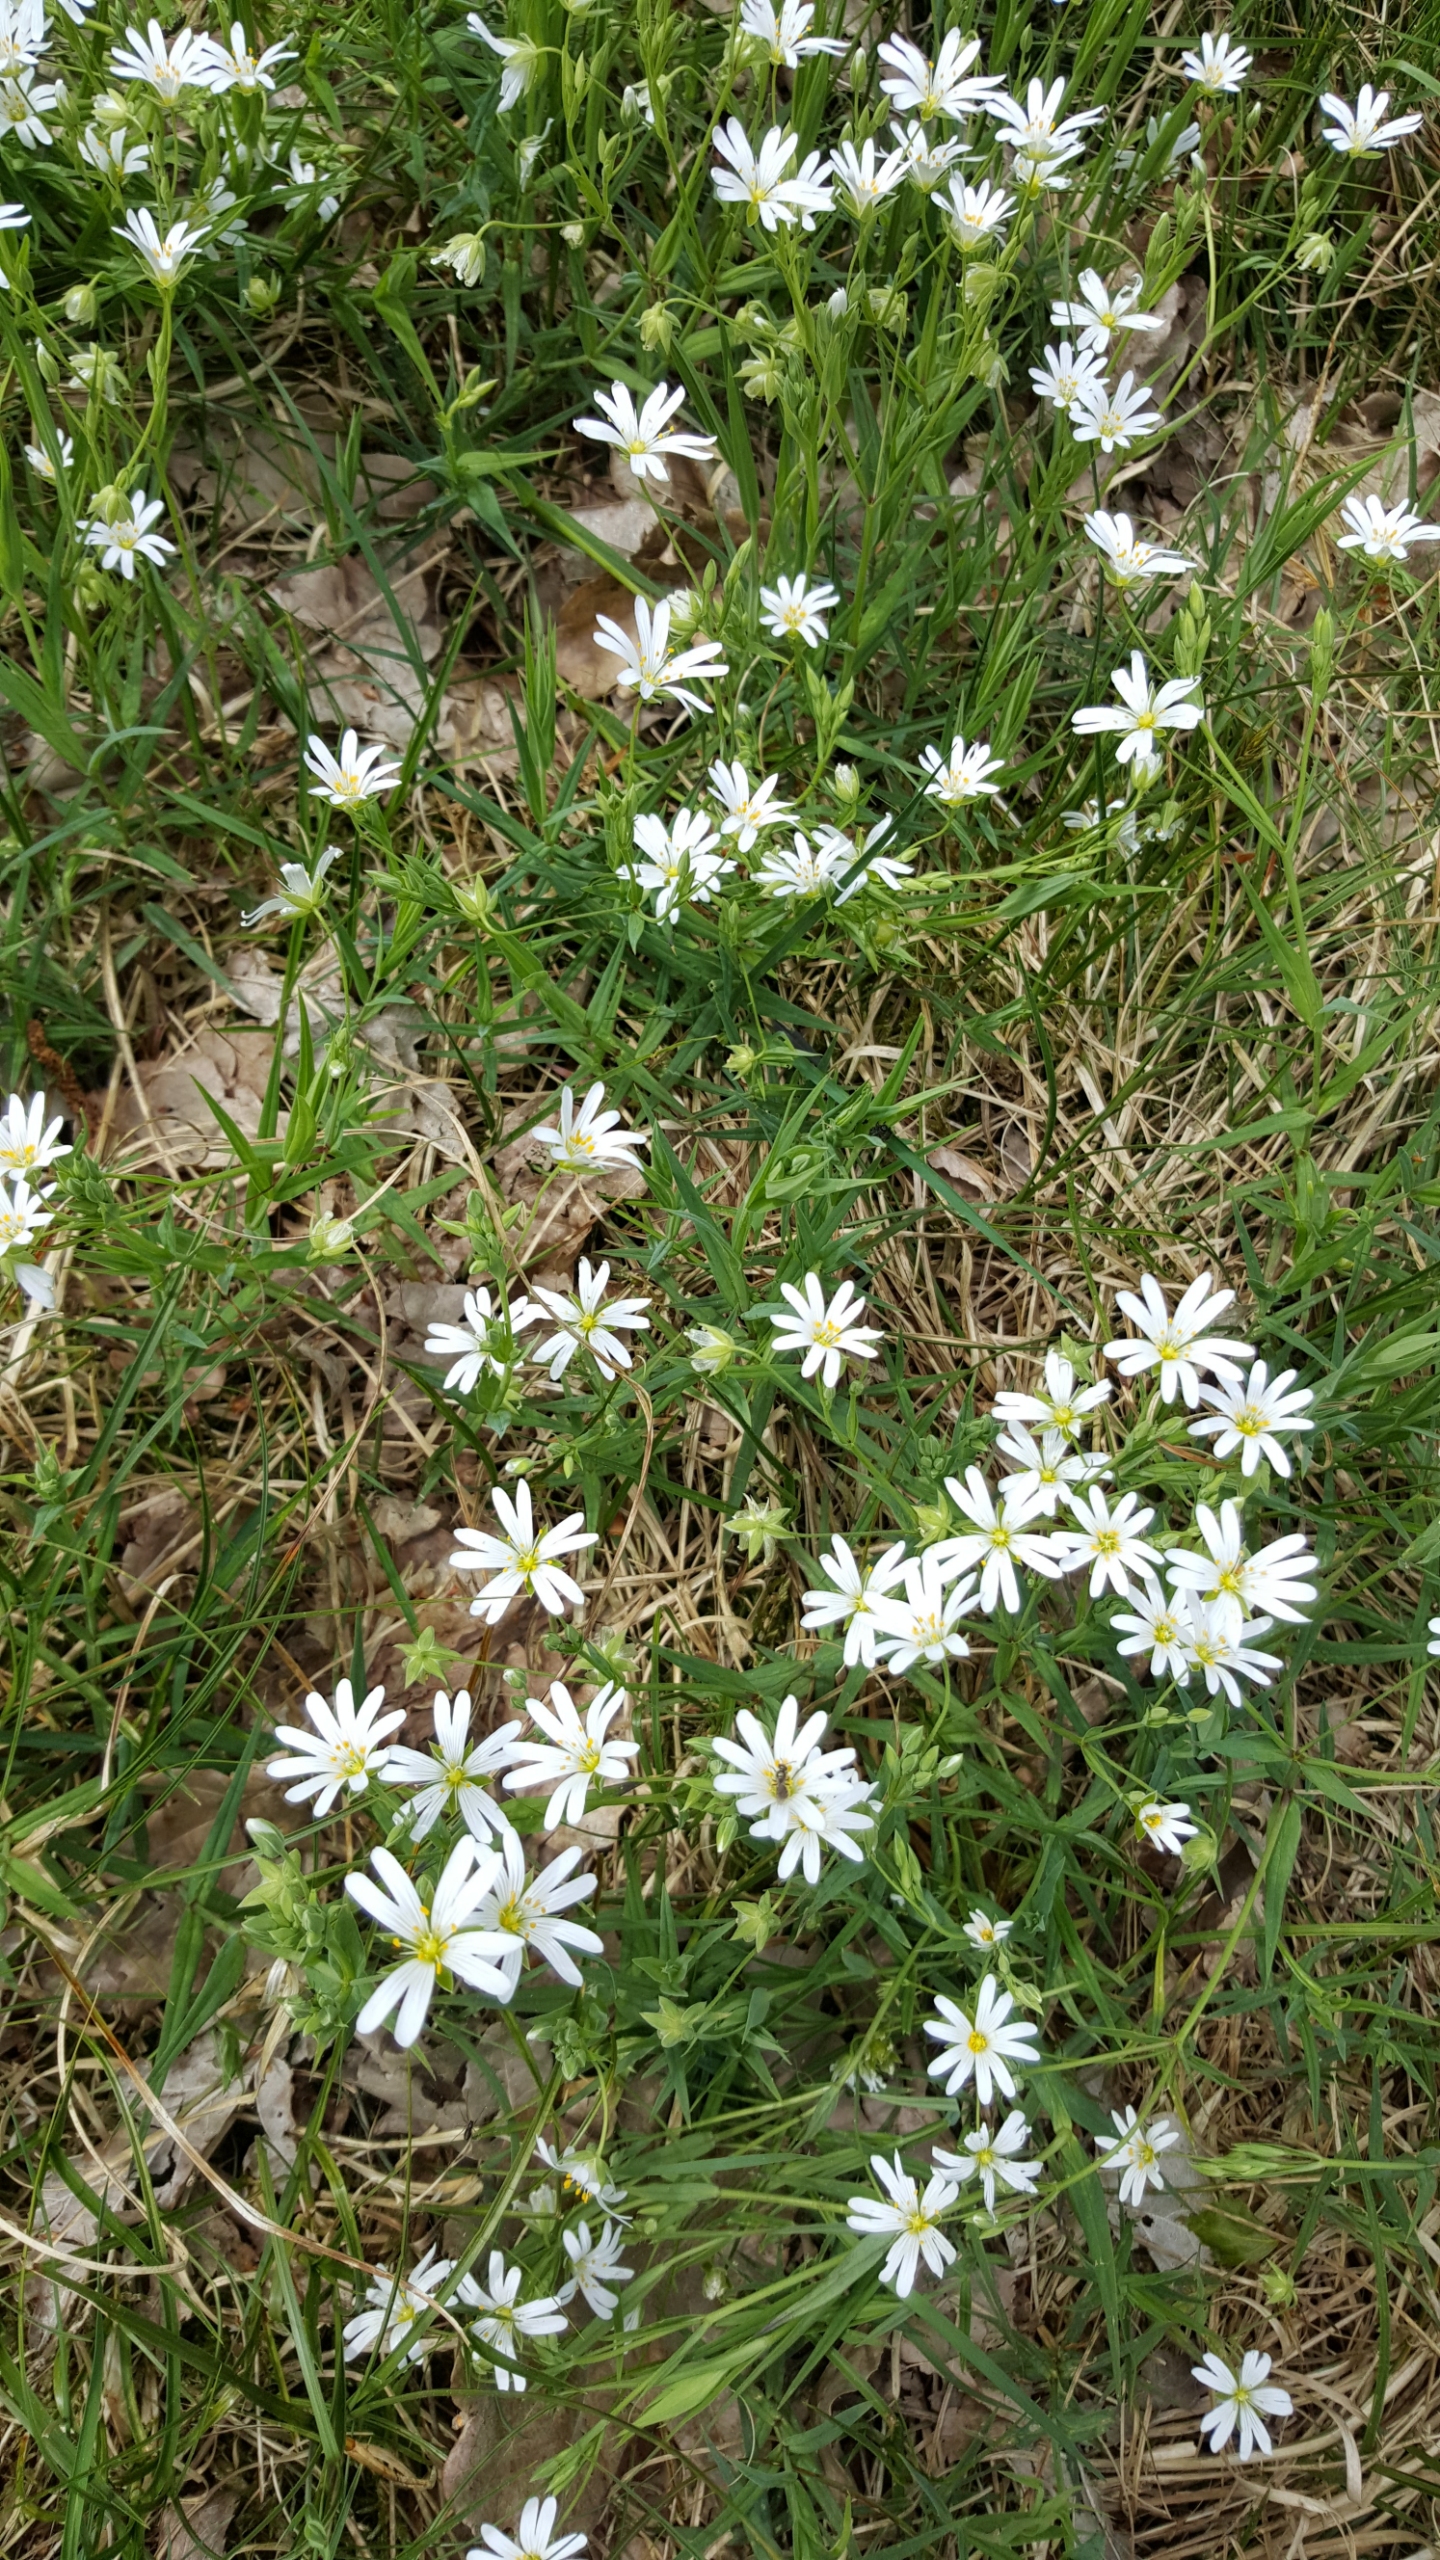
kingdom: Plantae
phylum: Tracheophyta
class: Magnoliopsida
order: Caryophyllales
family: Caryophyllaceae
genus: Rabelera
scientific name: Rabelera holostea
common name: Stor fladstjerne
